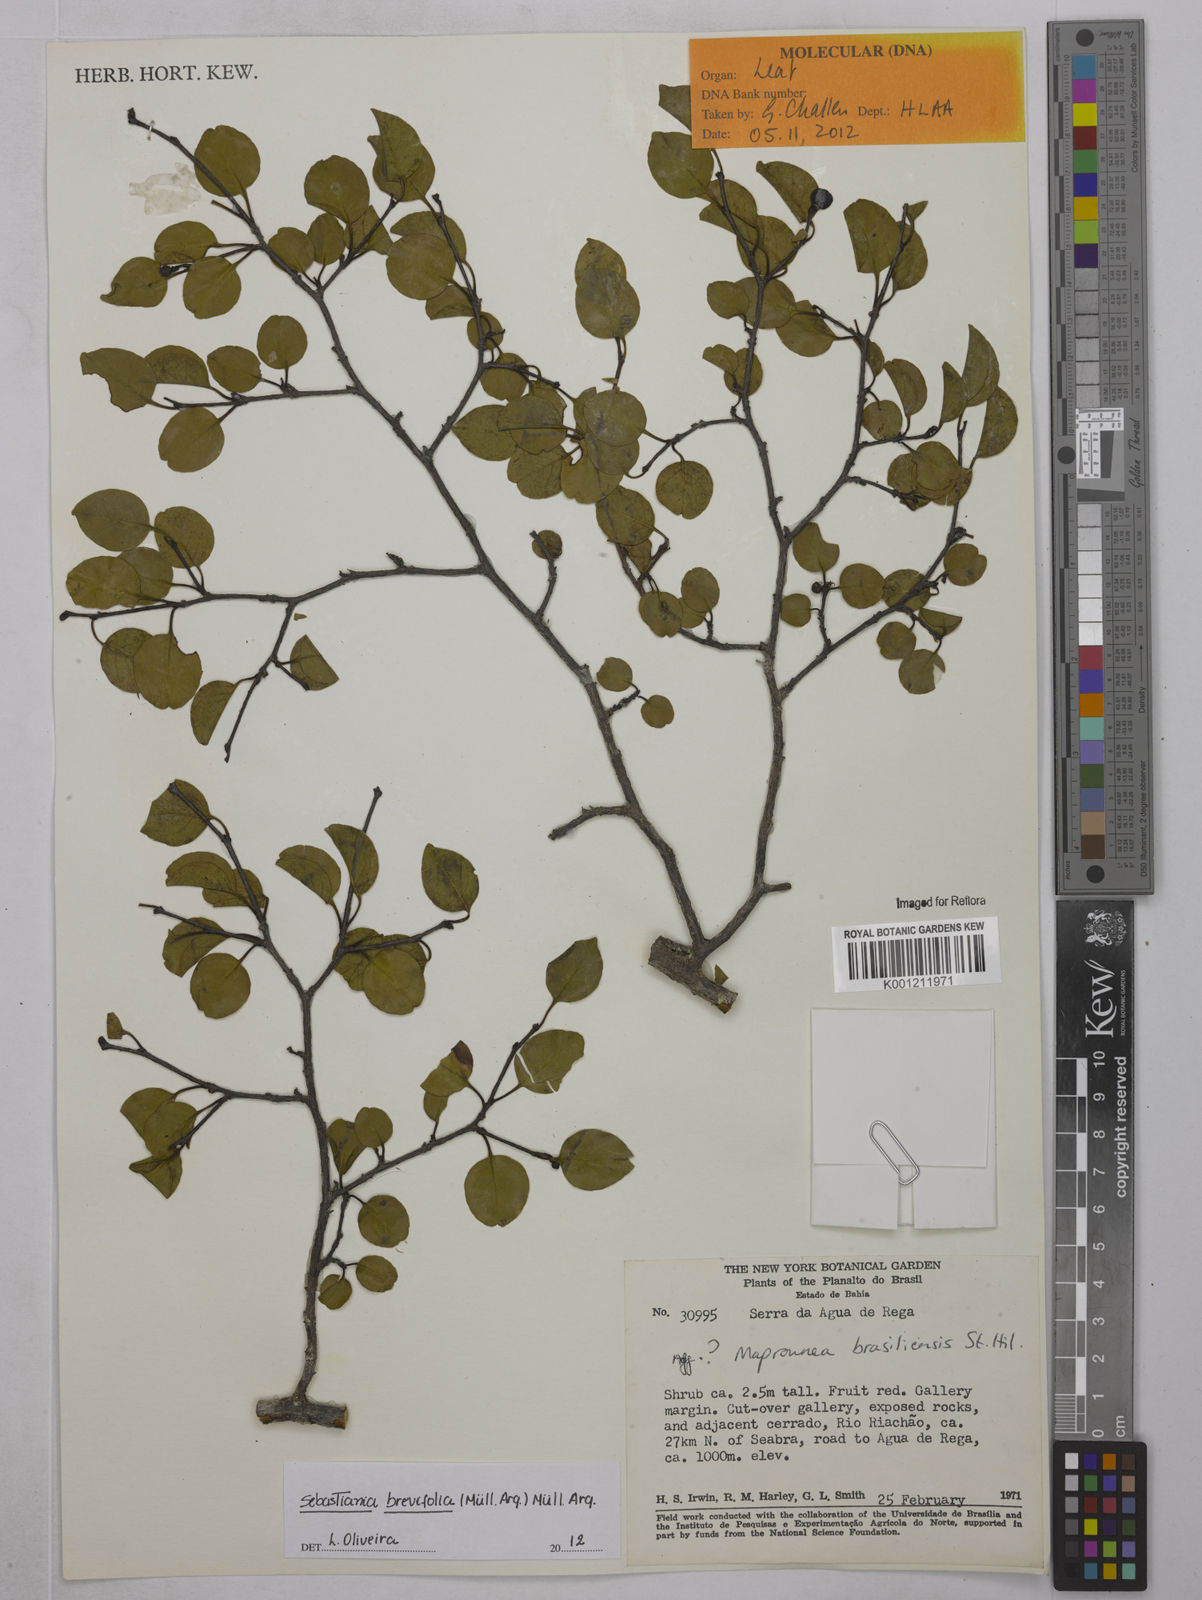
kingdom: Plantae
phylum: Tracheophyta
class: Magnoliopsida
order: Malpighiales
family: Euphorbiaceae
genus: Sebastiania
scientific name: Sebastiania
